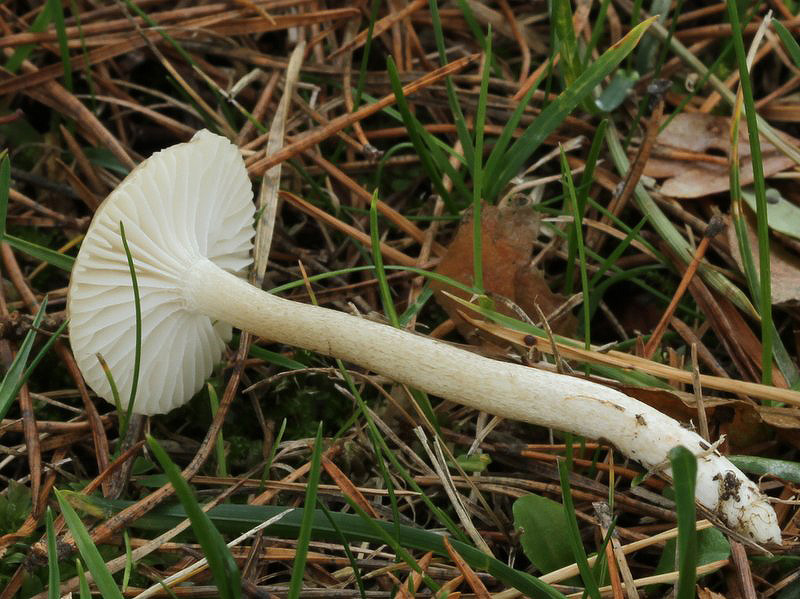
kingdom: Fungi
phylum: Basidiomycota
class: Agaricomycetes
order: Agaricales
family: Hygrophoraceae
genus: Hygrophorus
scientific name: Hygrophorus suaveolens
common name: parfumeret sneglehat
